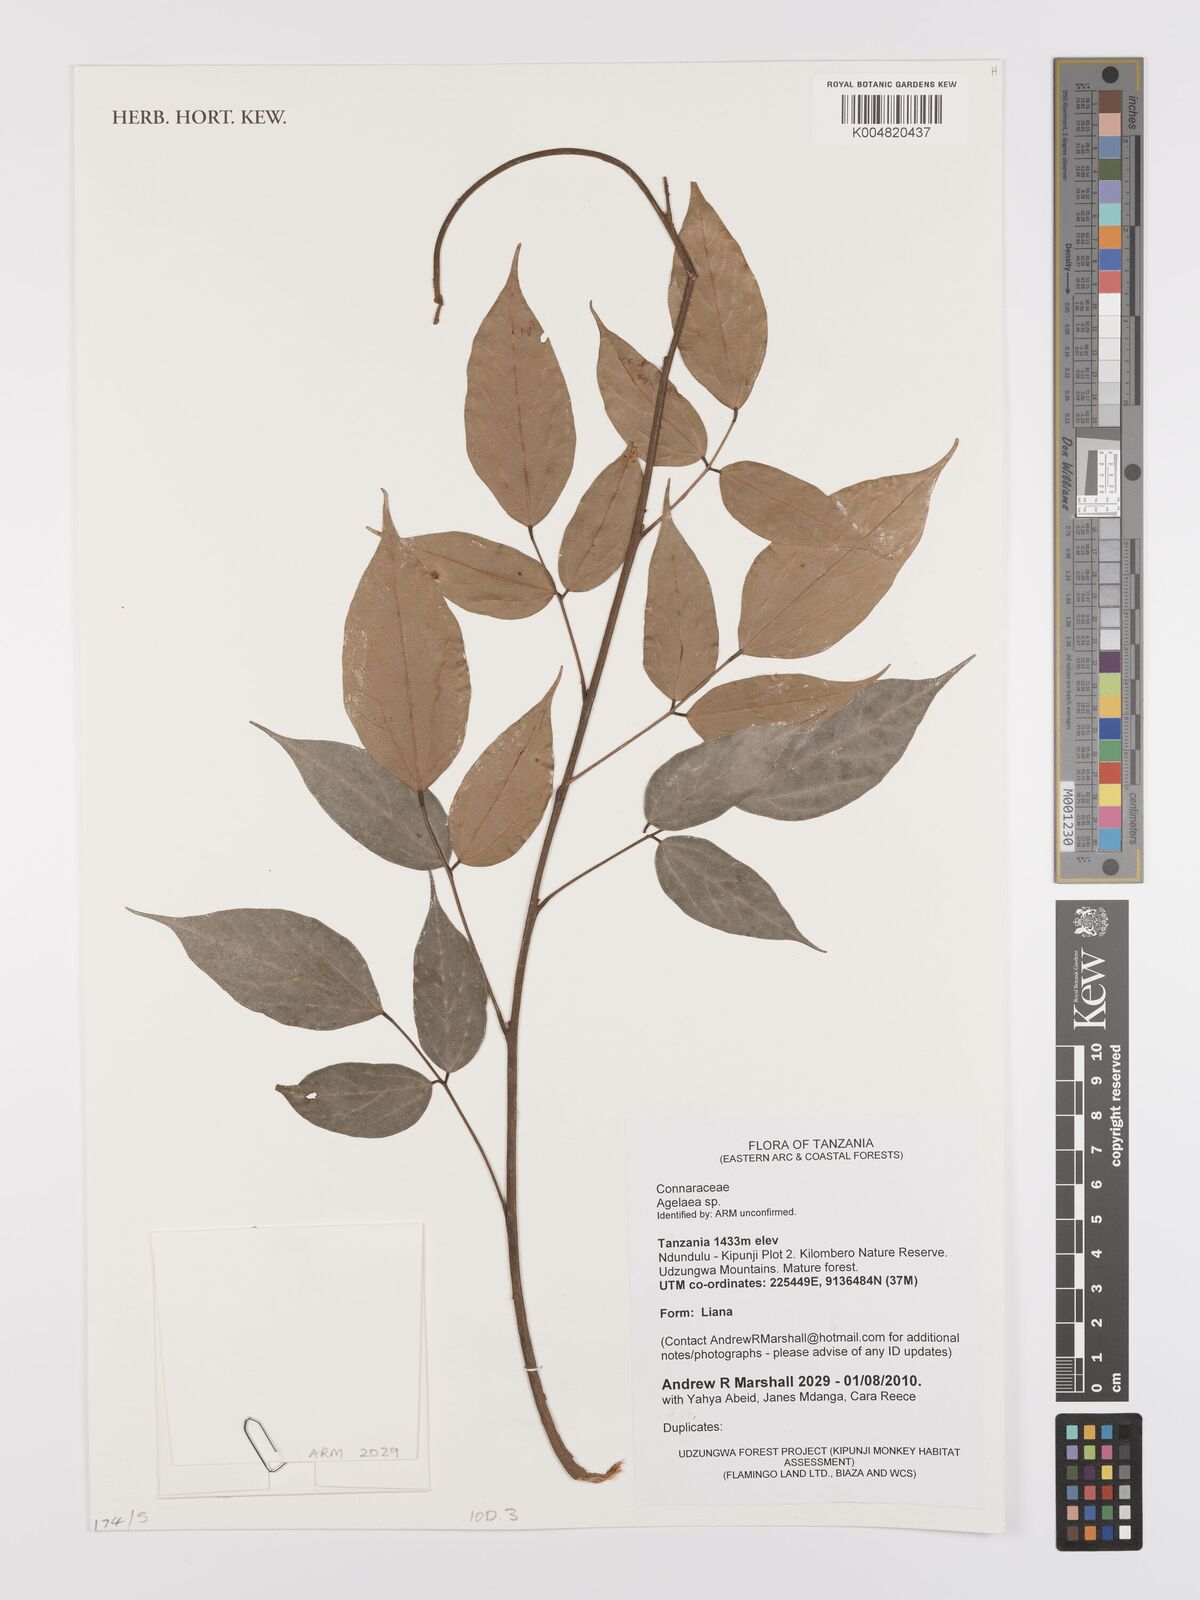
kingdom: Plantae
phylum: Tracheophyta
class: Magnoliopsida
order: Oxalidales
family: Connaraceae
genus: Agelaea
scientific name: Agelaea
